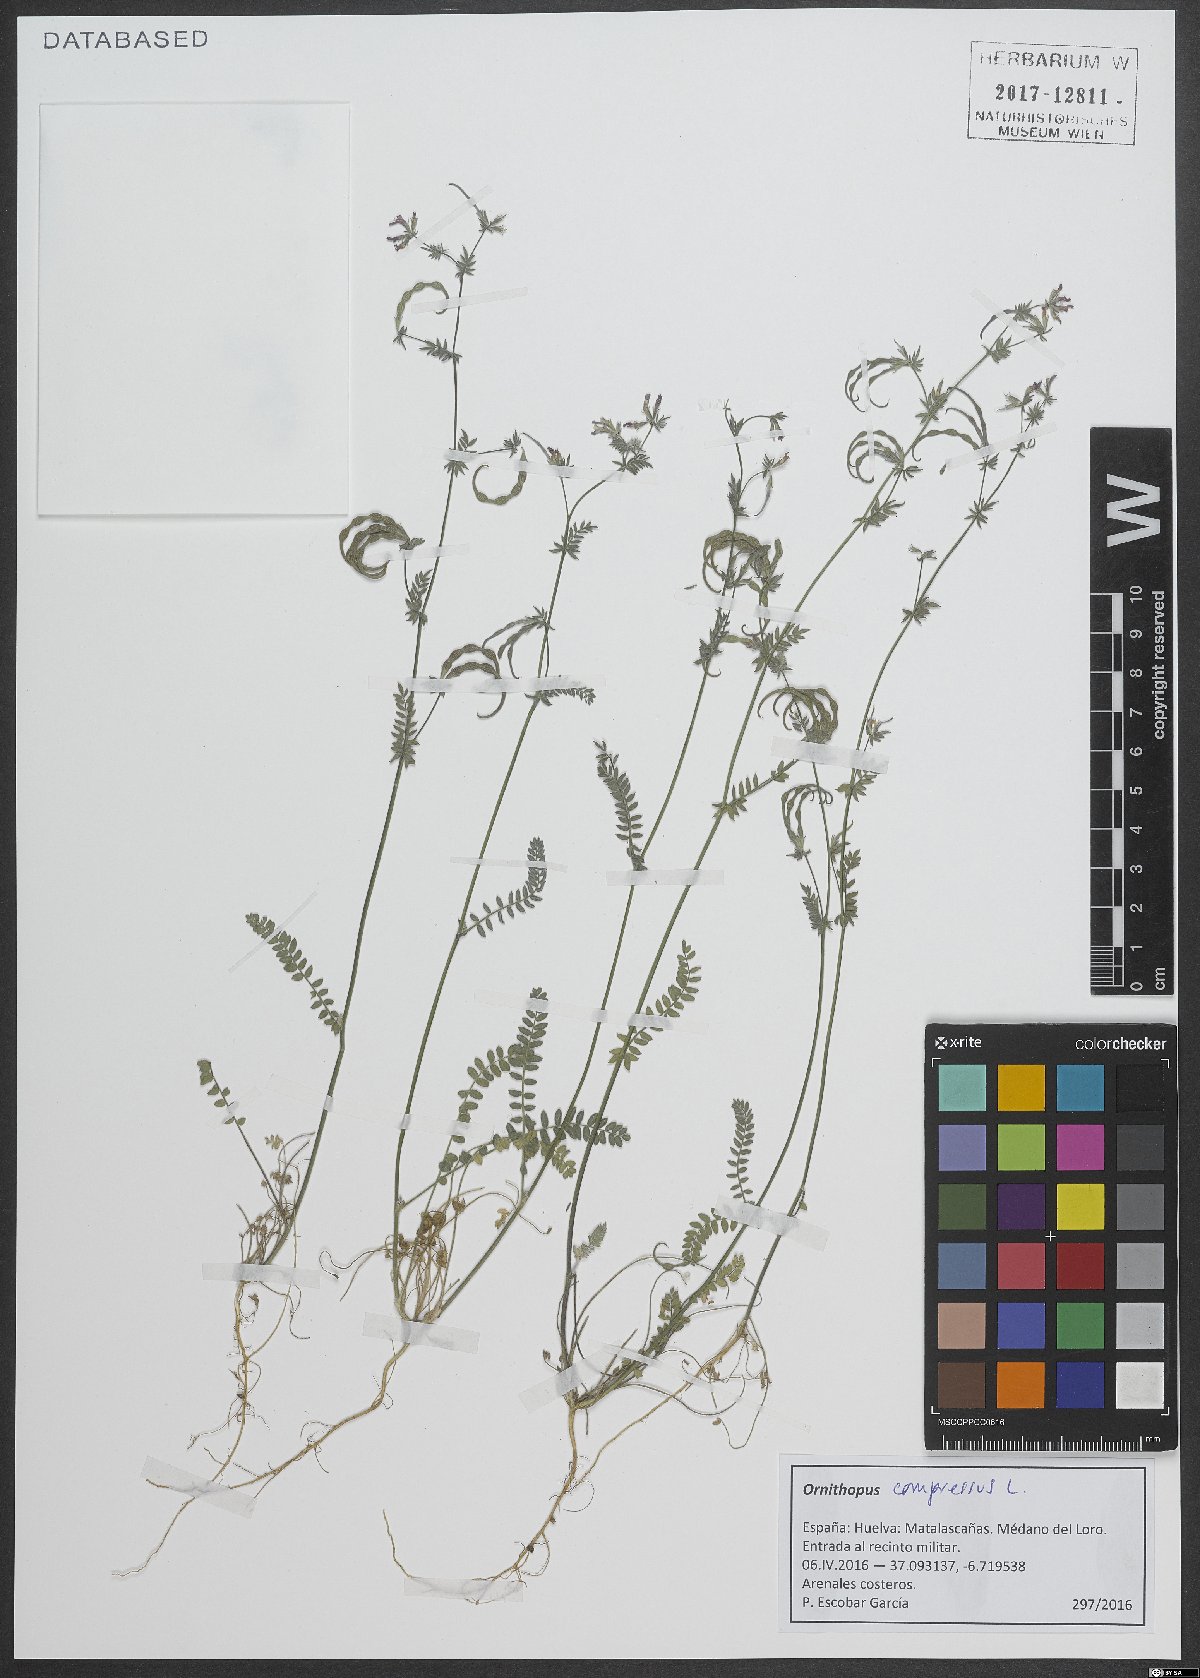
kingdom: Plantae
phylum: Tracheophyta
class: Magnoliopsida
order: Fabales
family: Fabaceae
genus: Ornithopus
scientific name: Ornithopus compressus
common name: Yellow serradella
